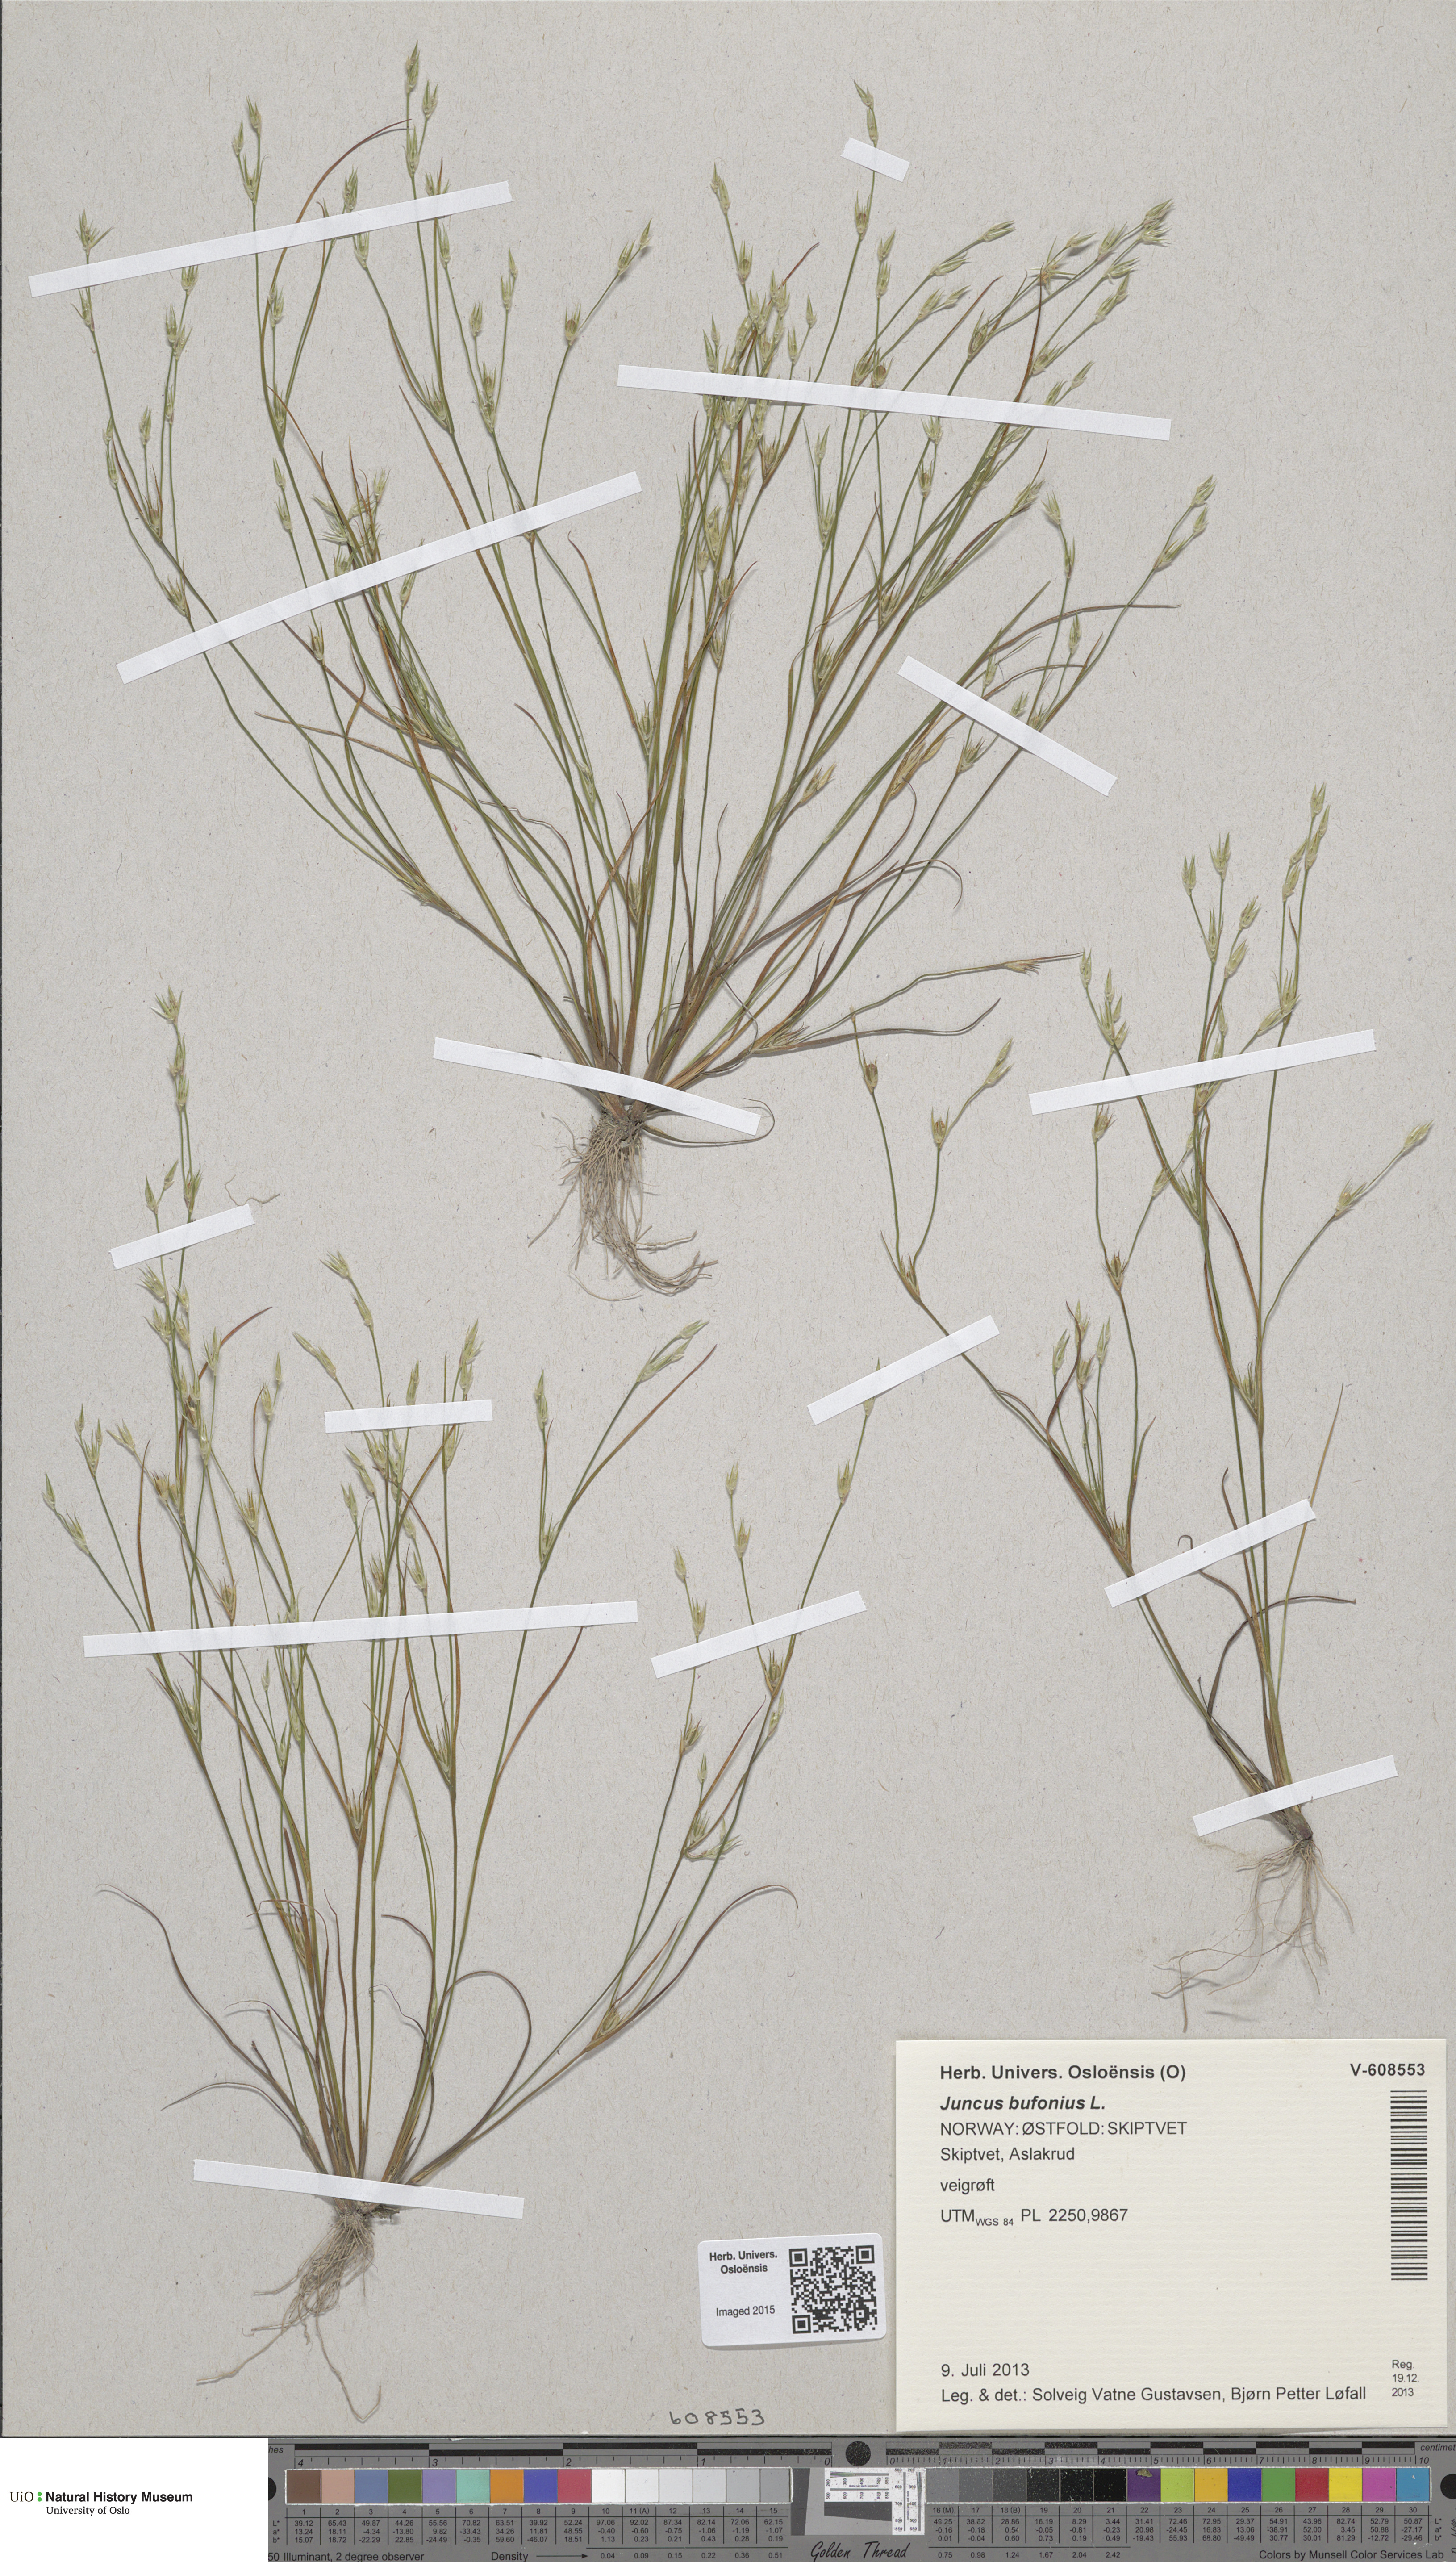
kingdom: Plantae
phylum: Tracheophyta
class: Liliopsida
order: Poales
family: Juncaceae
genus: Juncus
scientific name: Juncus bufonius
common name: Toad rush
